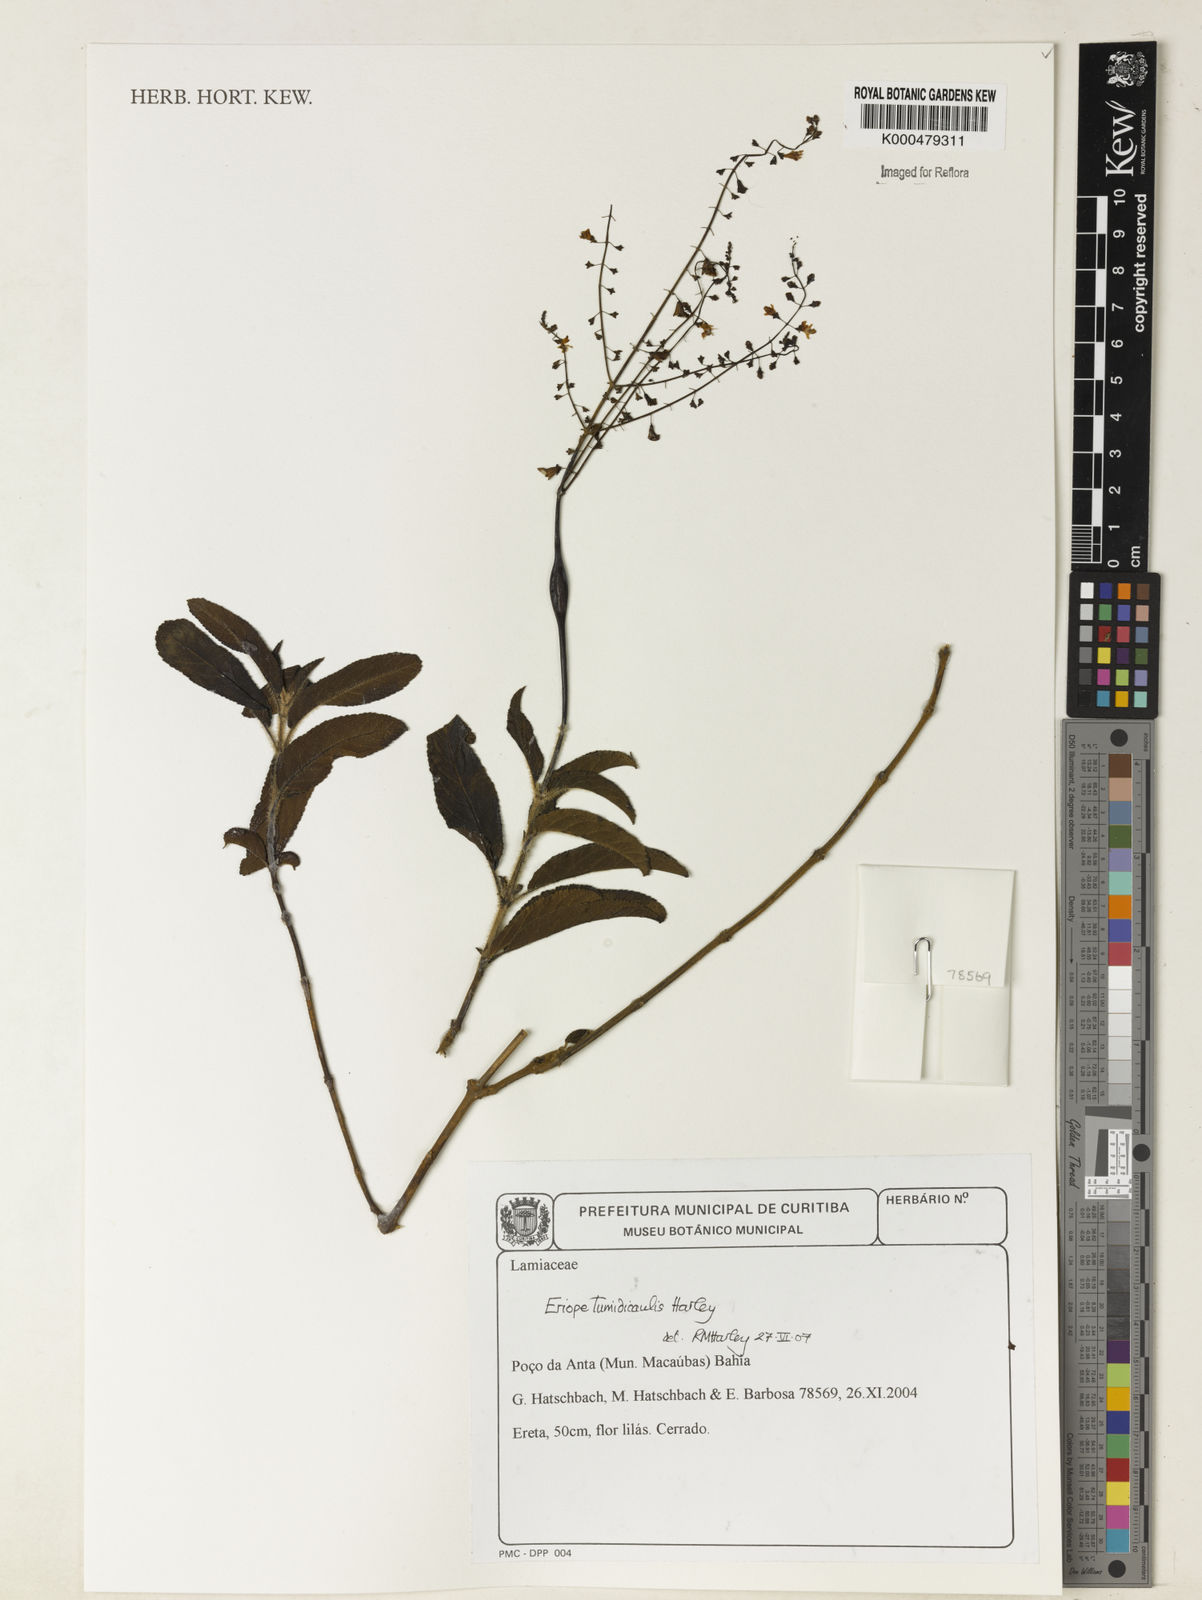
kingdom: Plantae
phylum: Tracheophyta
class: Magnoliopsida
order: Lamiales
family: Lamiaceae
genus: Eriope
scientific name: Eriope tumidicaulis
